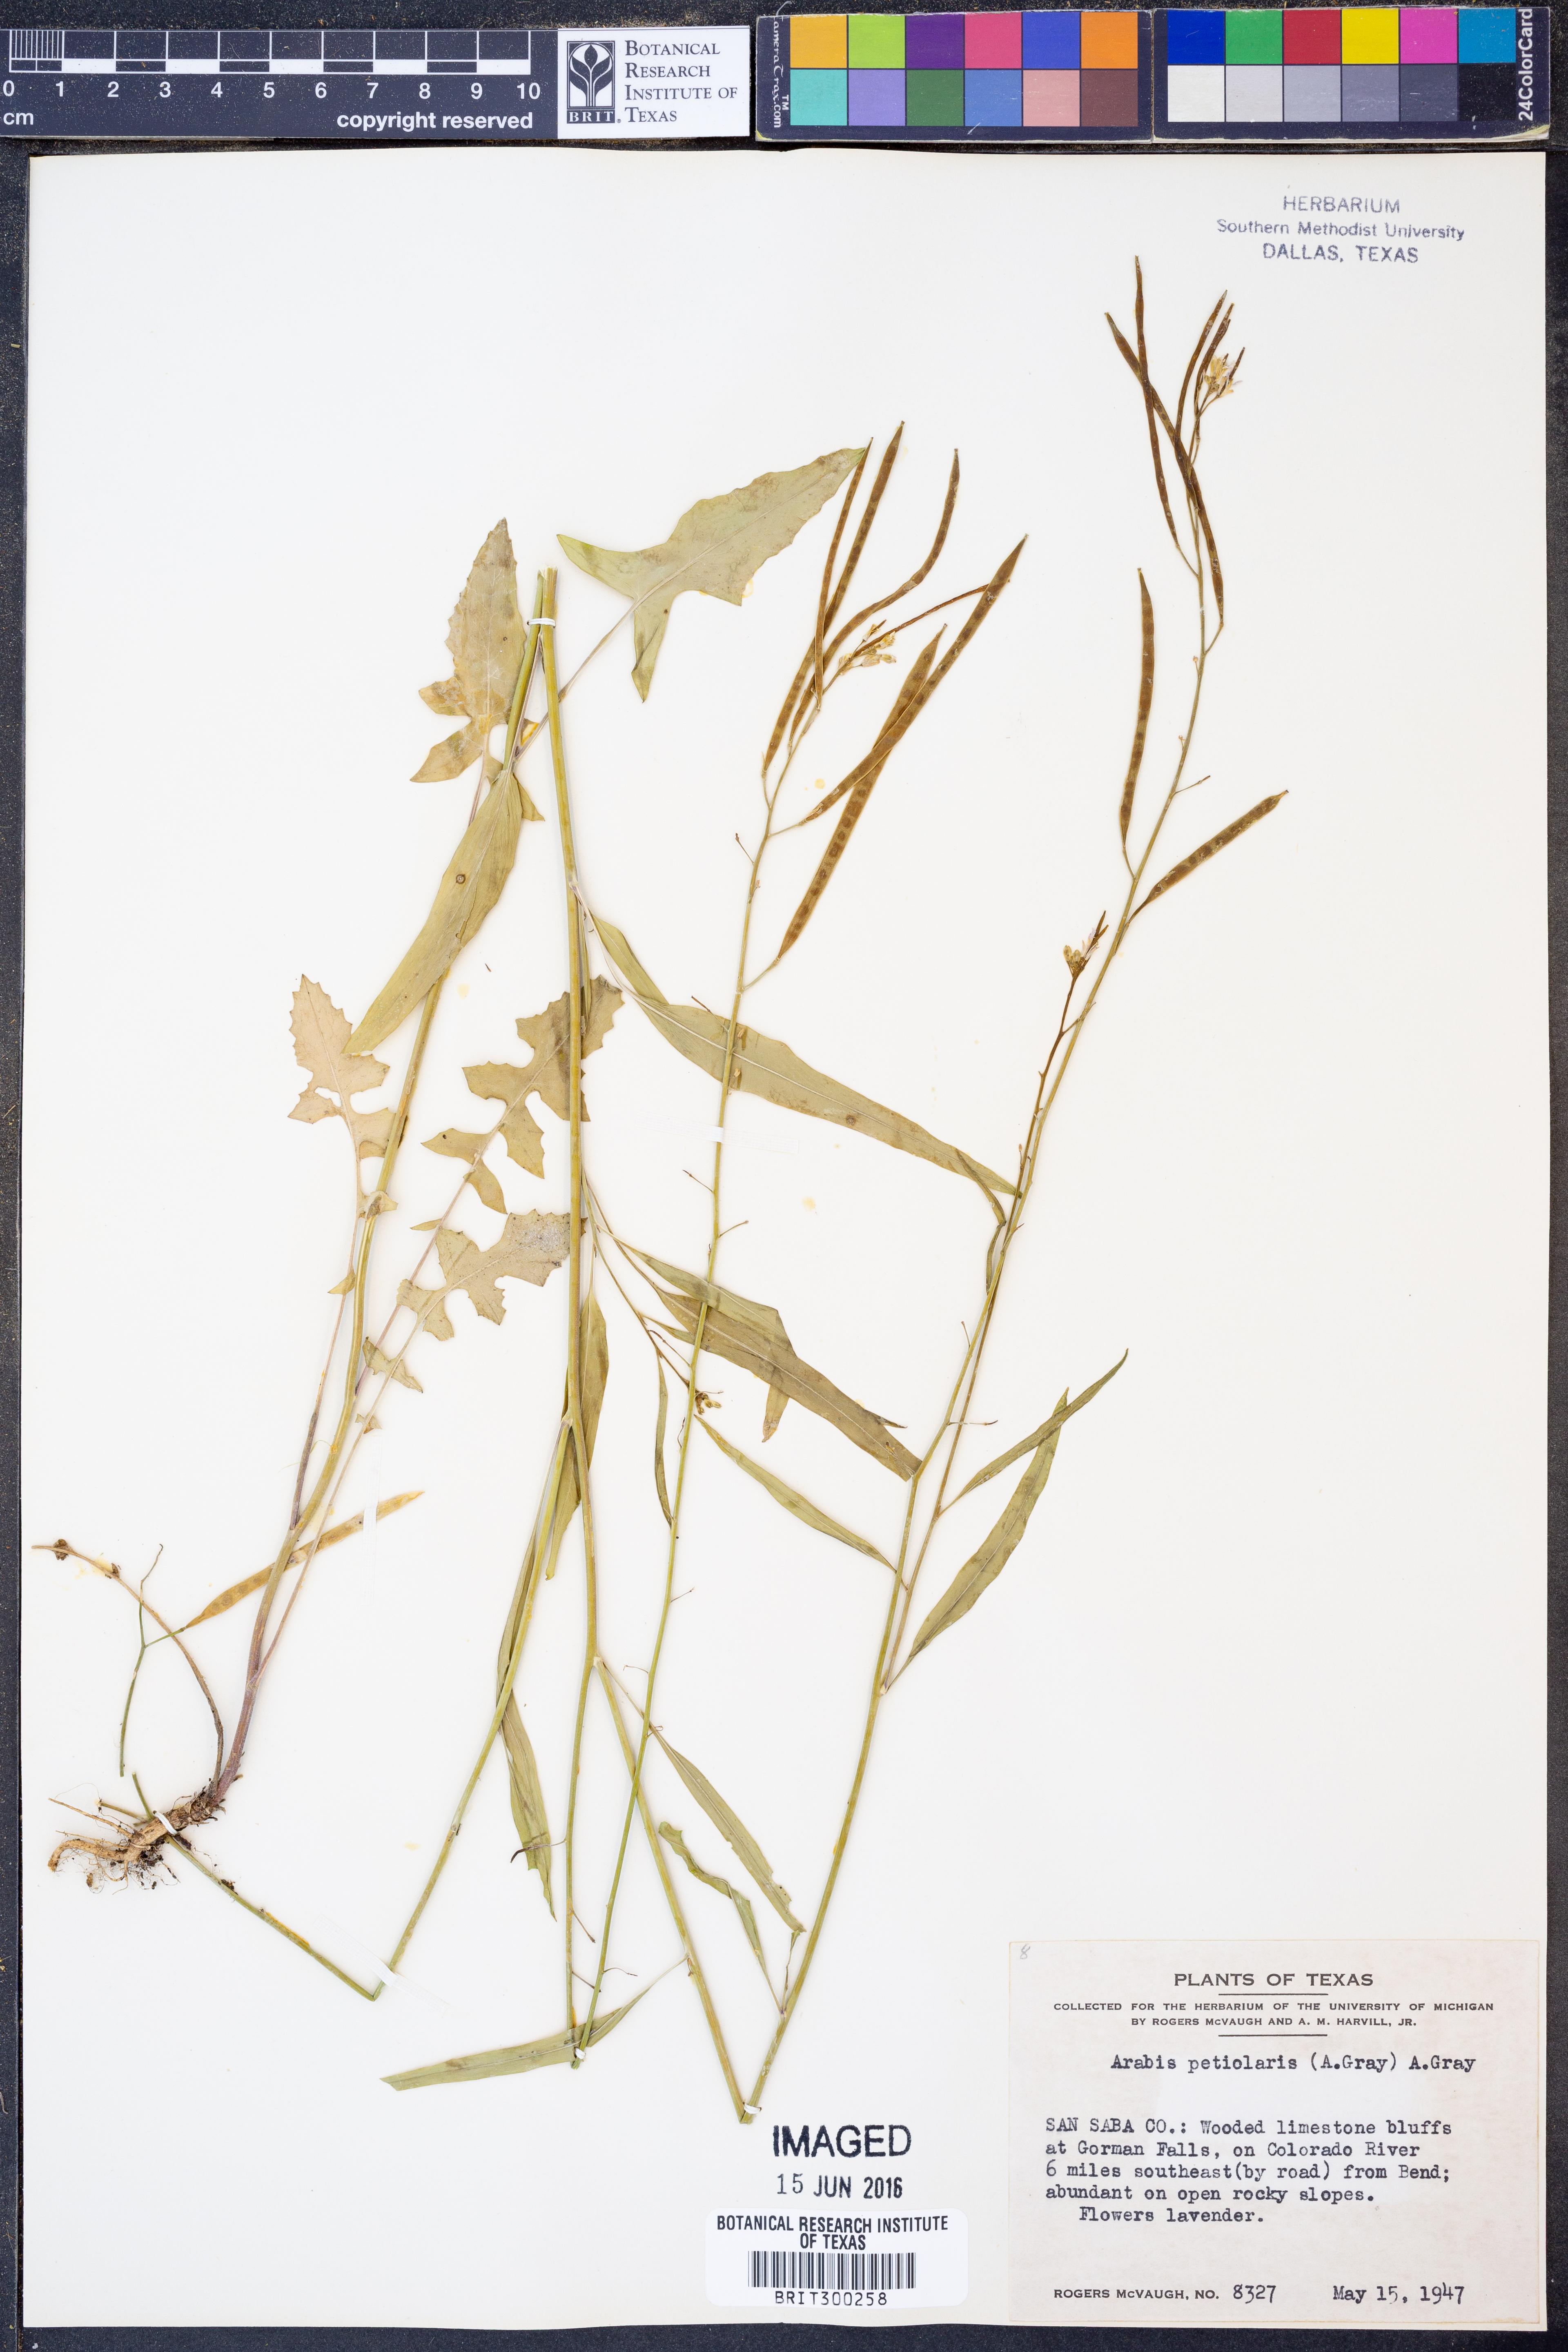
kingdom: Plantae
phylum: Tracheophyta
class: Magnoliopsida
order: Brassicales
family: Brassicaceae
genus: Streptanthus
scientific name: Streptanthus petiolaris
